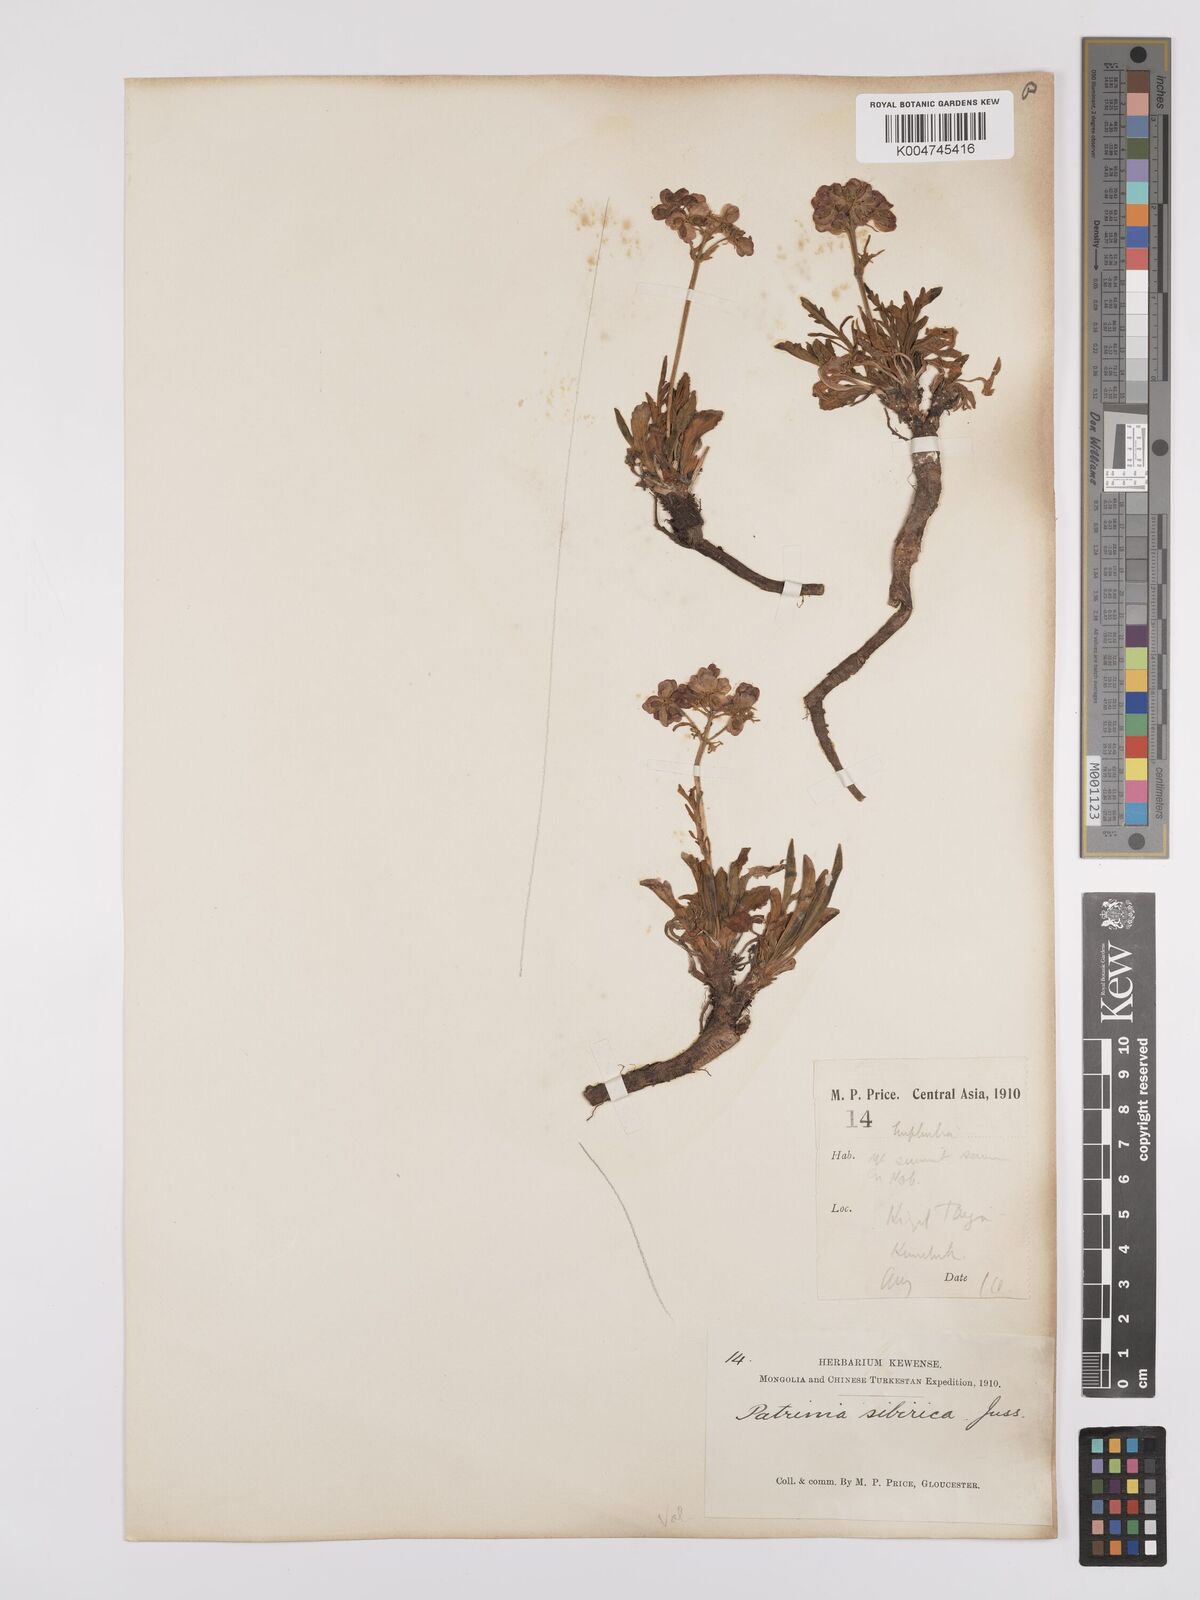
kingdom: Plantae
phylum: Tracheophyta
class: Magnoliopsida
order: Dipsacales
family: Caprifoliaceae
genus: Patrinia
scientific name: Patrinia sibirica
